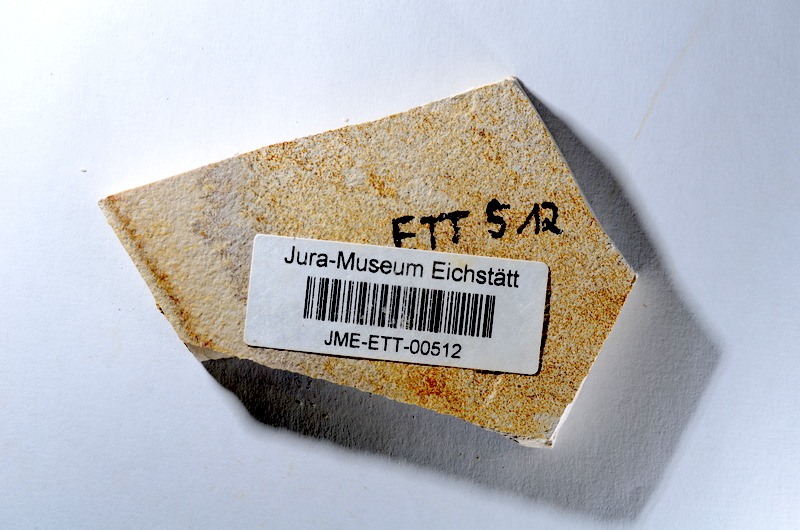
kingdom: Animalia
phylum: Chordata
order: Salmoniformes
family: Orthogonikleithridae
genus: Orthogonikleithrus
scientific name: Orthogonikleithrus hoelli
